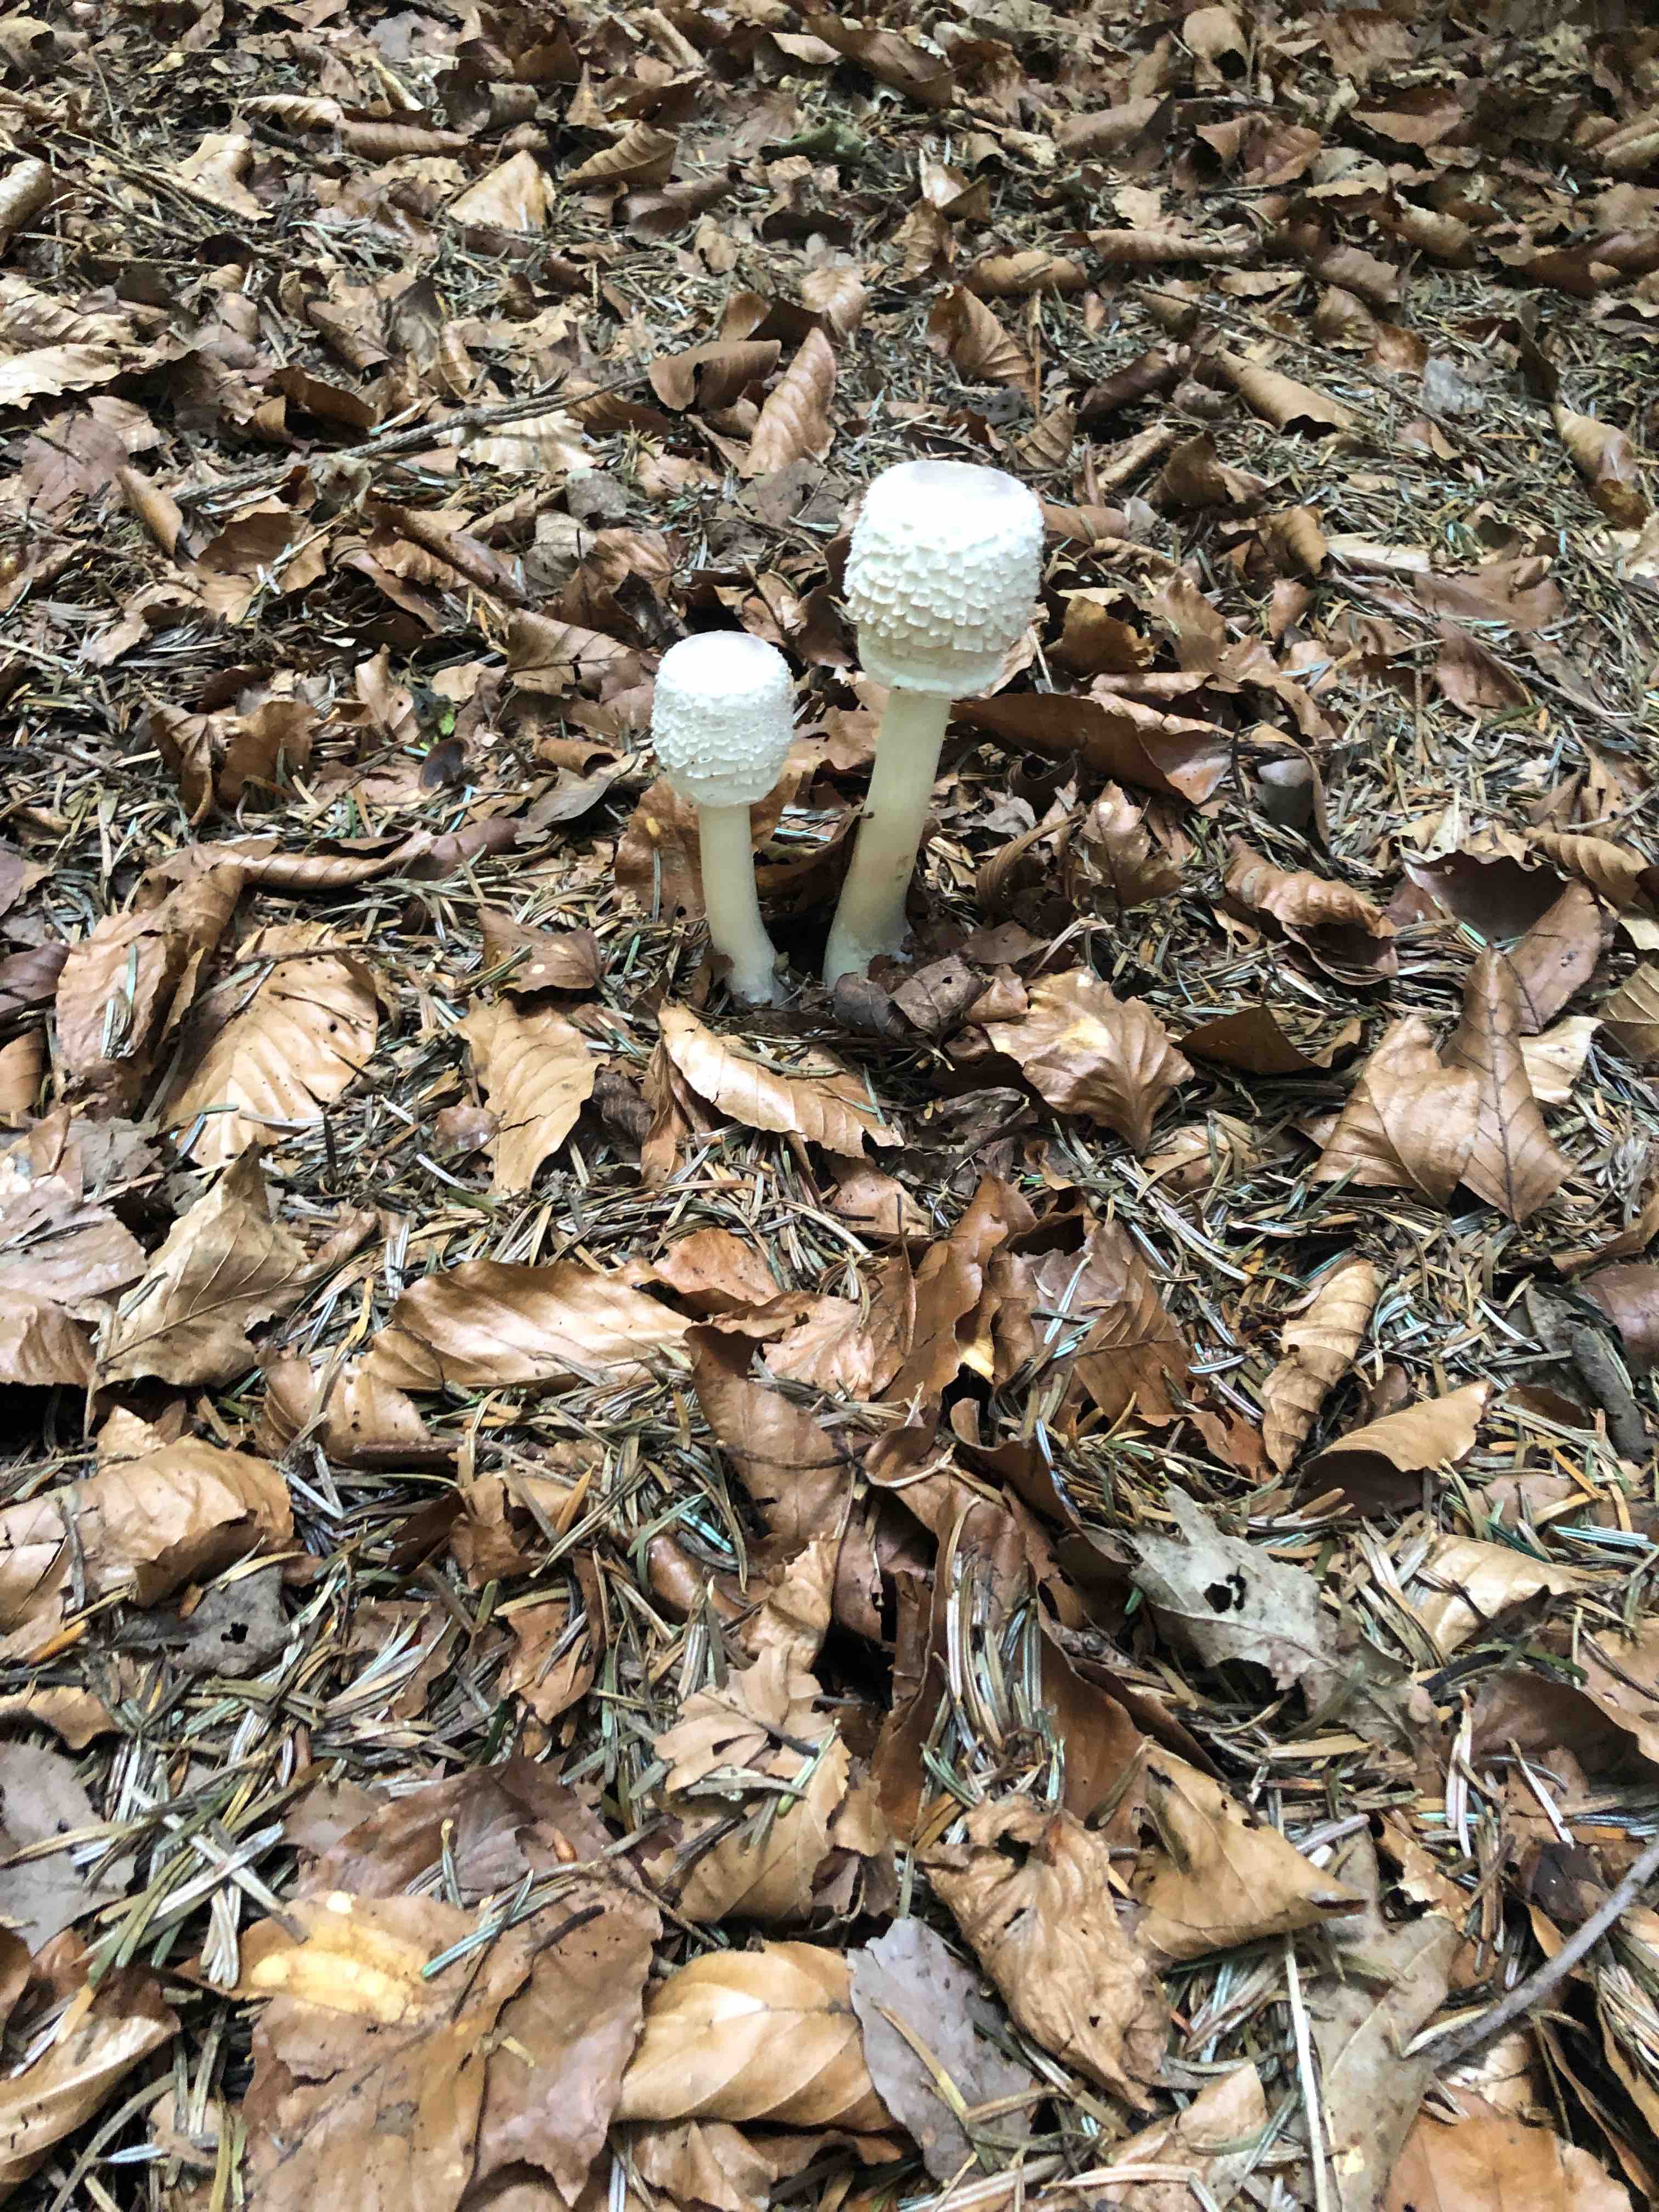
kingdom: Fungi
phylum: Basidiomycota
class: Agaricomycetes
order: Agaricales
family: Agaricaceae
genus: Leucoagaricus
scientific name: Leucoagaricus nympharum
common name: gran-silkehat
